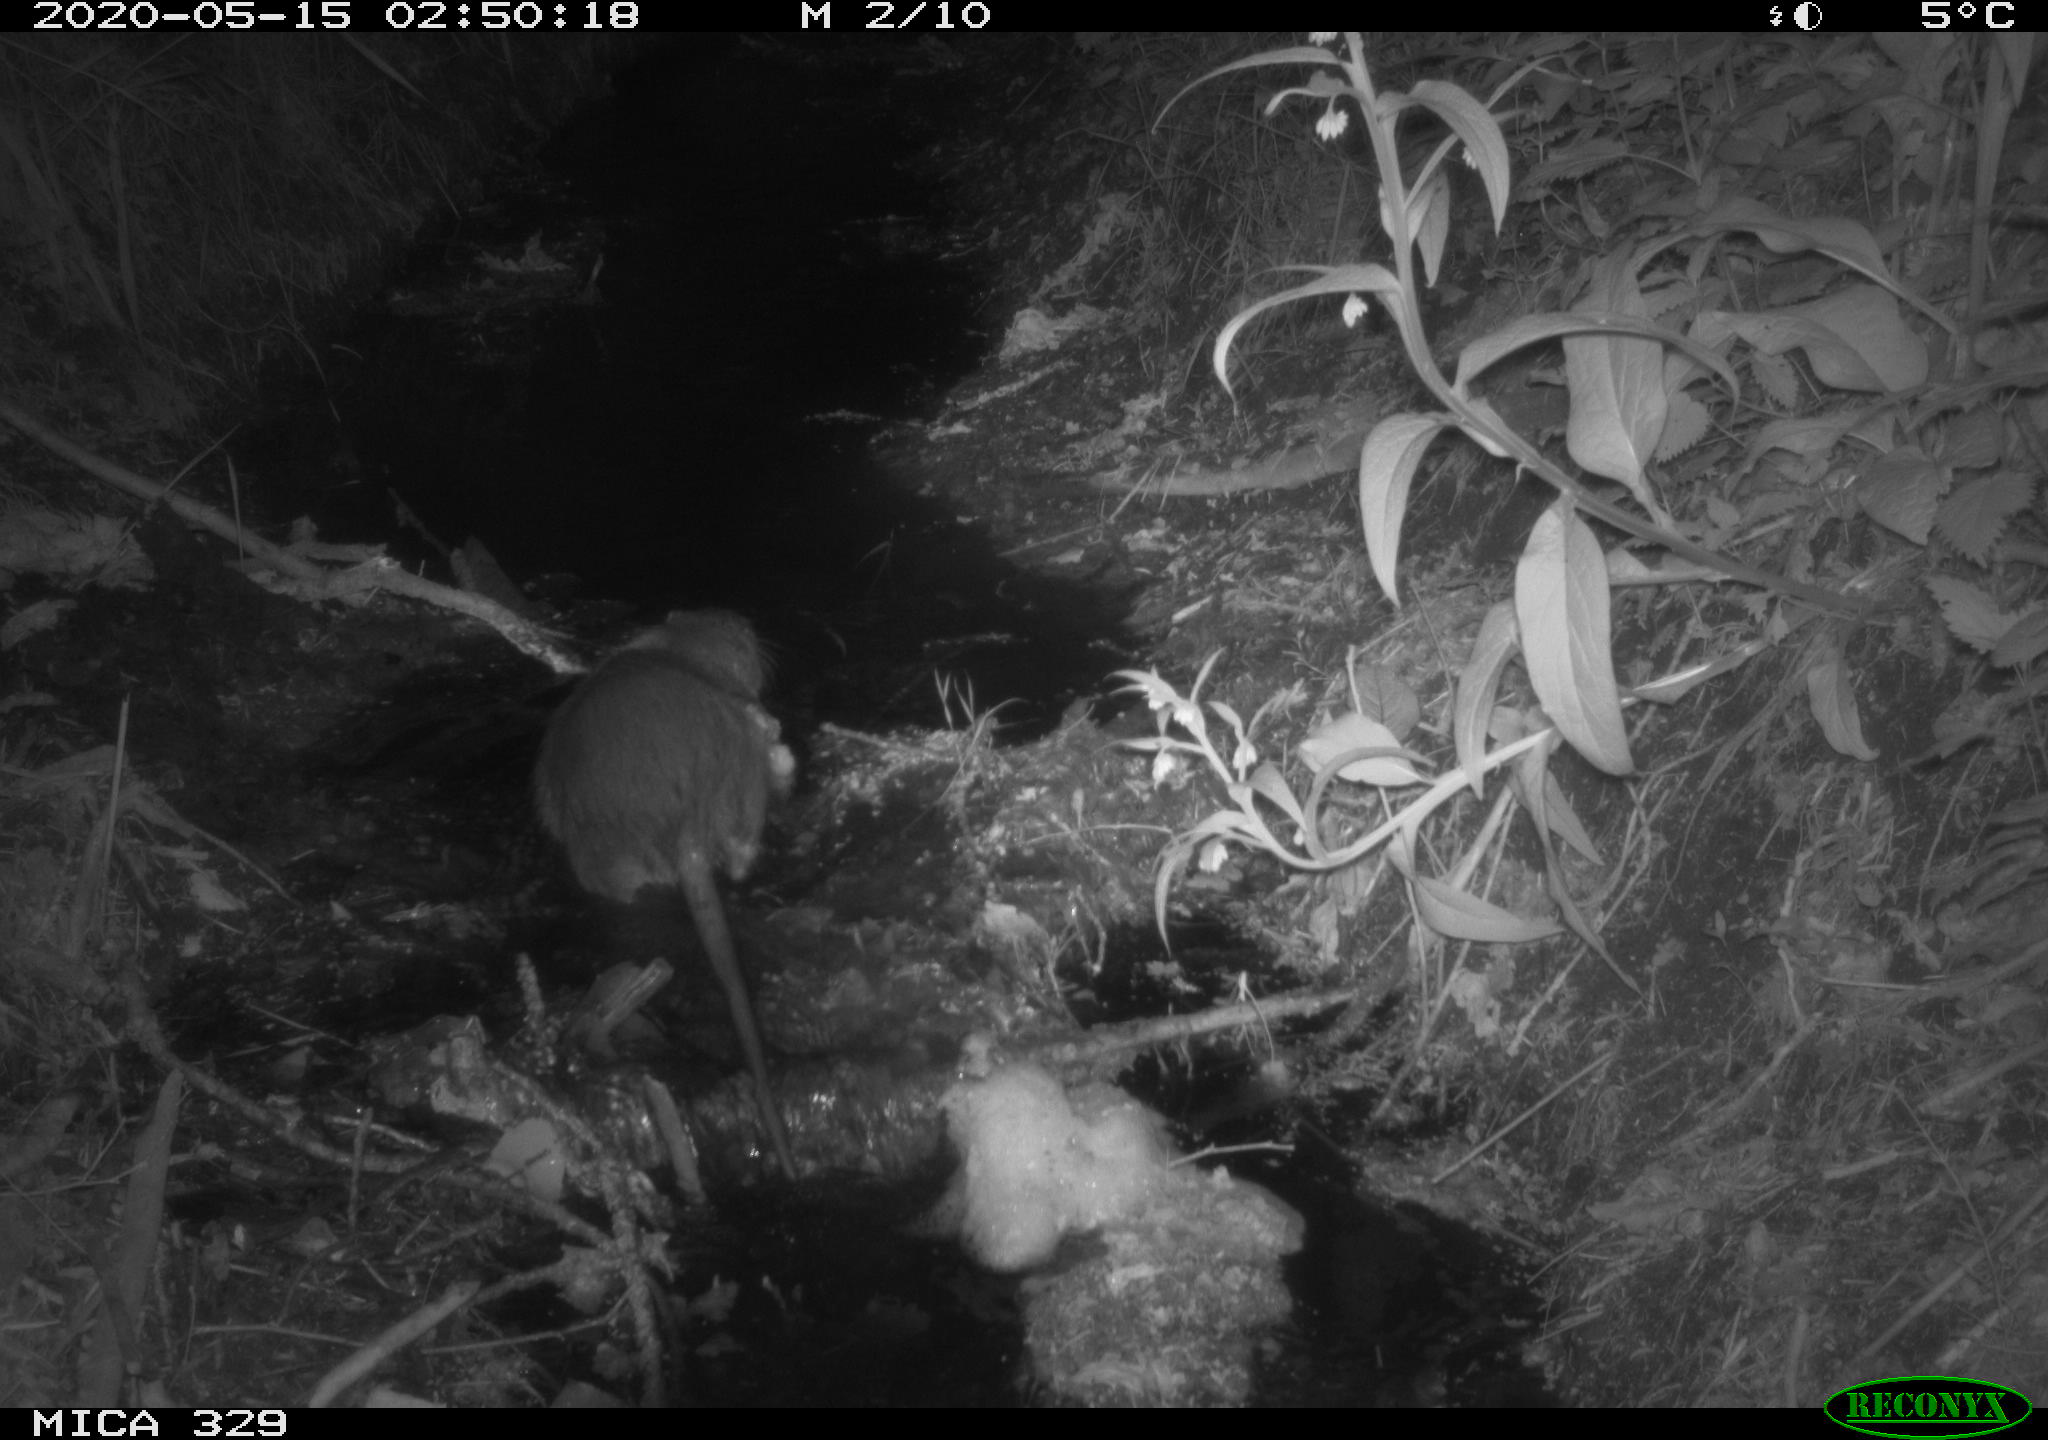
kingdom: Animalia
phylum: Chordata
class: Mammalia
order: Rodentia
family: Myocastoridae
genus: Myocastor
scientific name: Myocastor coypus
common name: Coypu
